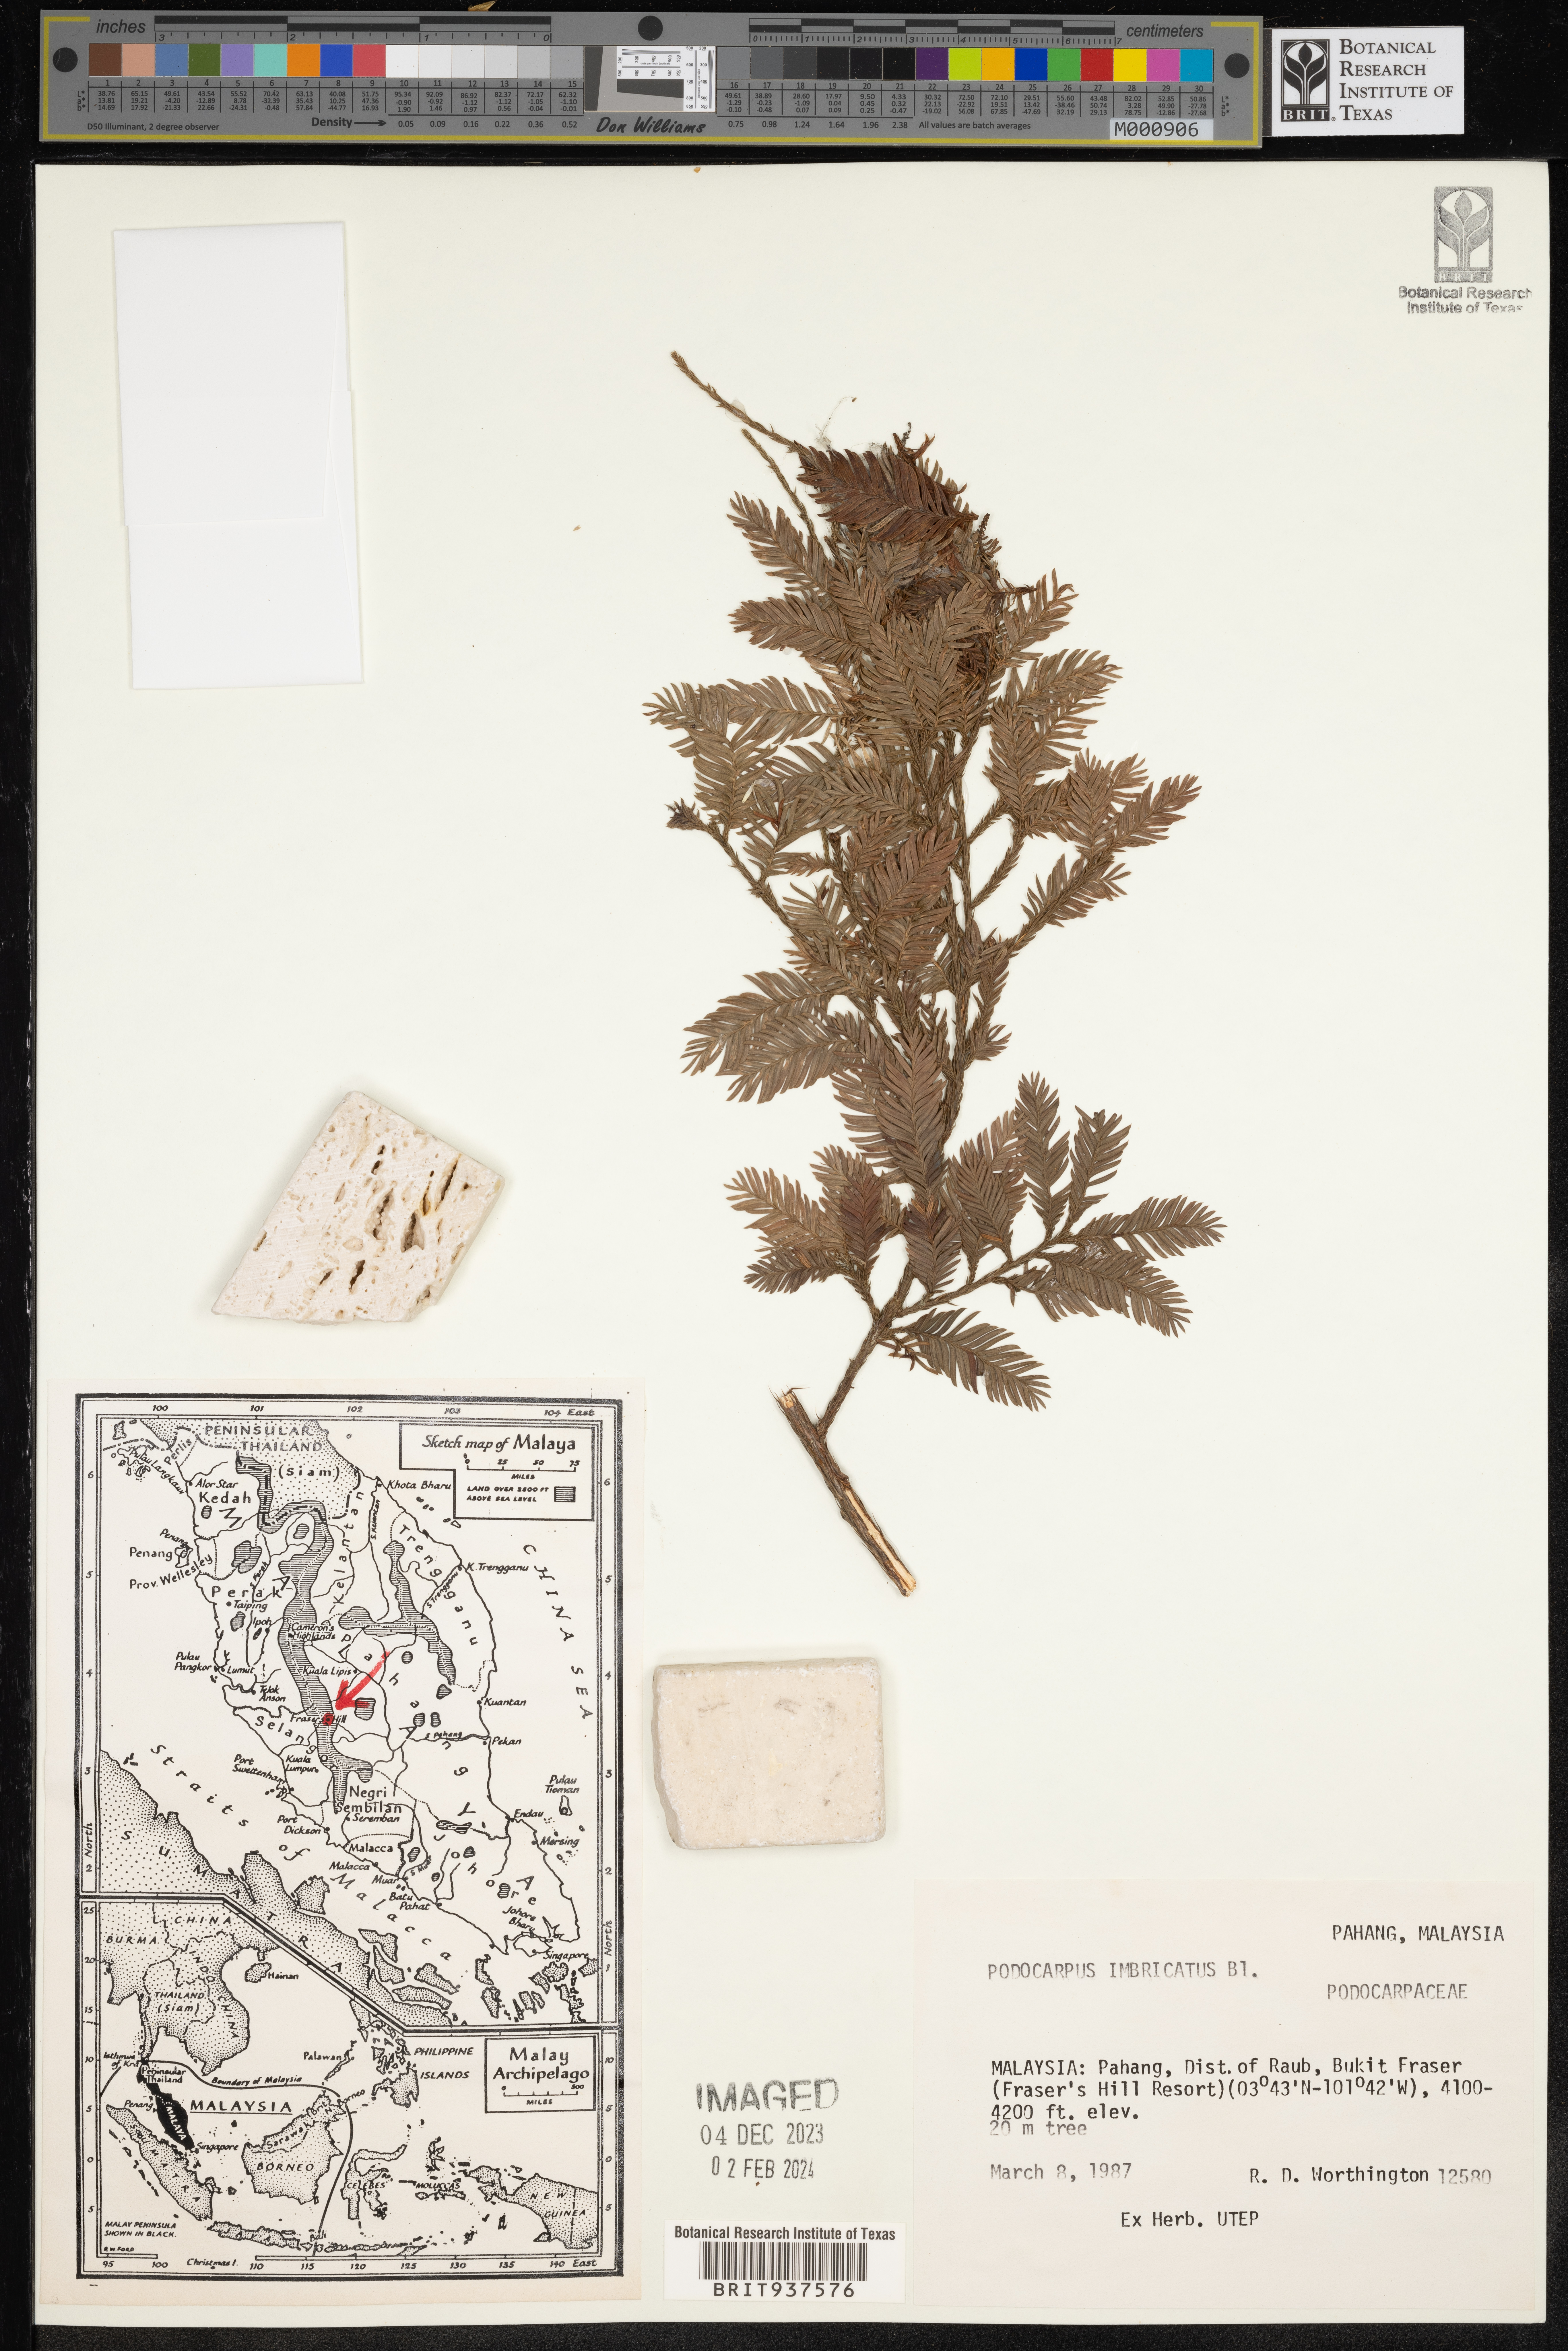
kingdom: Plantae
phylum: Tracheophyta
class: Pinopsida
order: Pinales
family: Podocarpaceae
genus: Podocarpus
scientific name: Podocarpus
